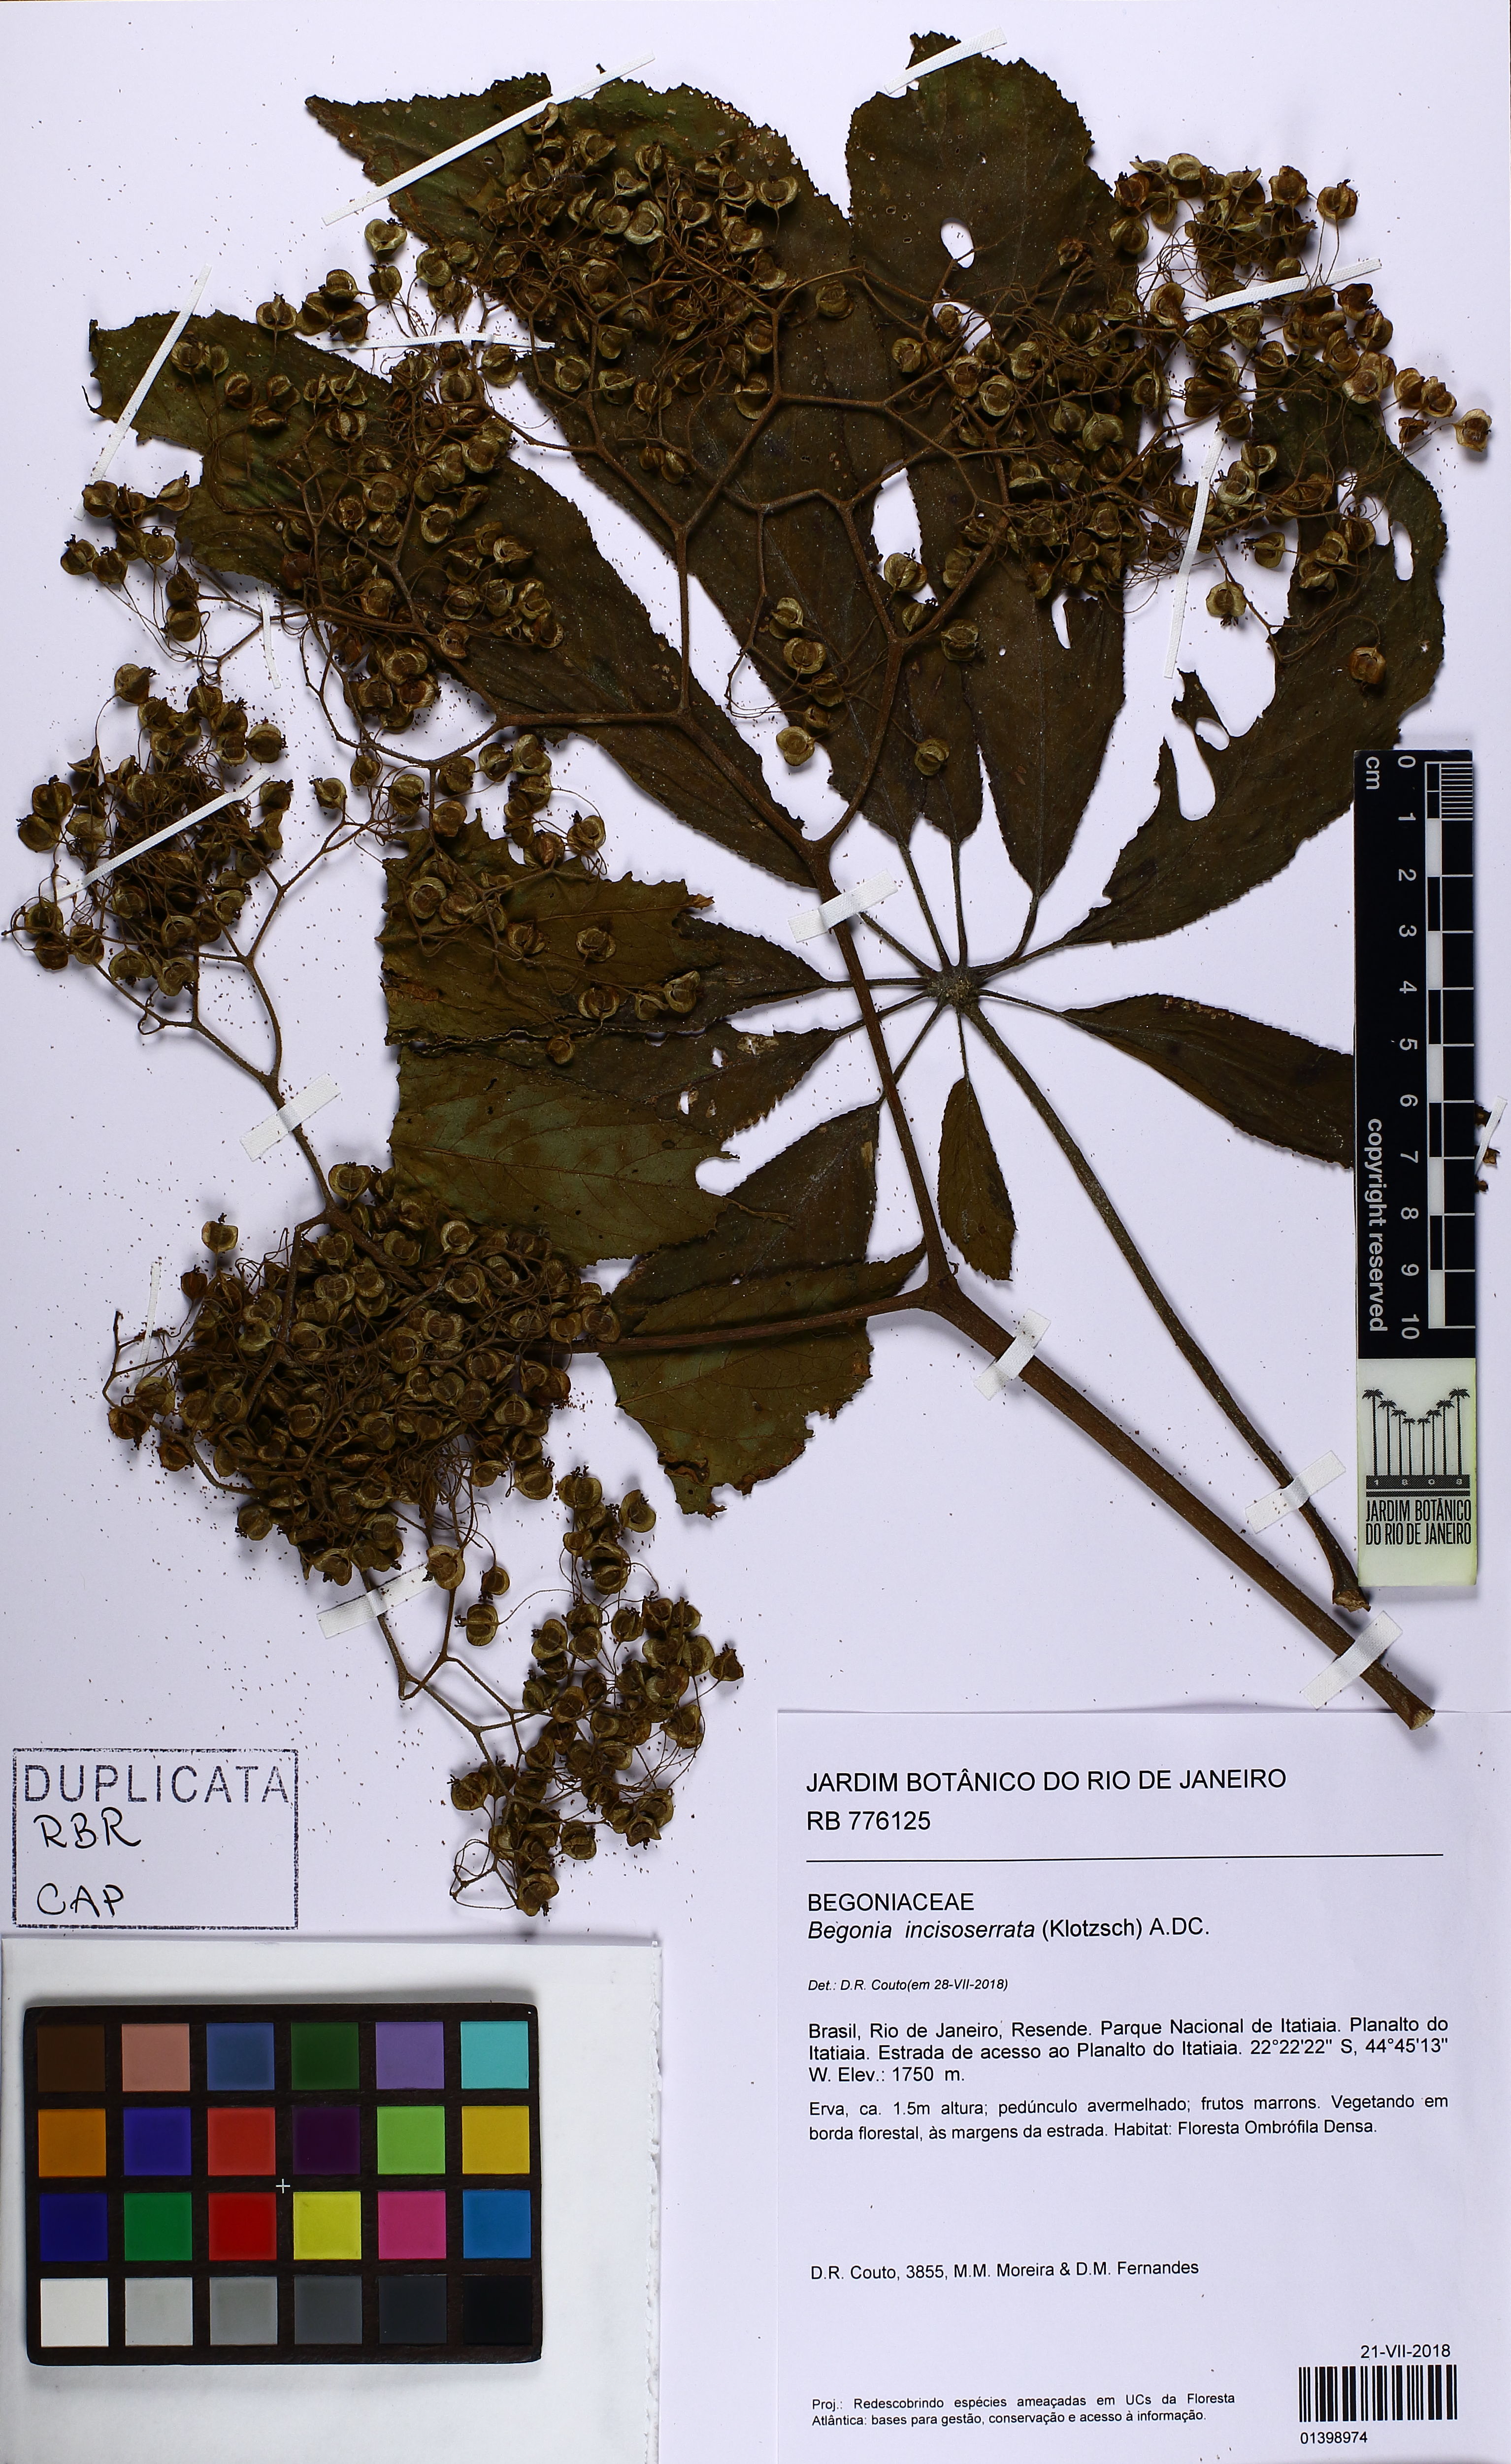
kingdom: Plantae
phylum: Tracheophyta
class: Magnoliopsida
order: Cucurbitales
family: Begoniaceae
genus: Begonia
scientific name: Begonia digitata
